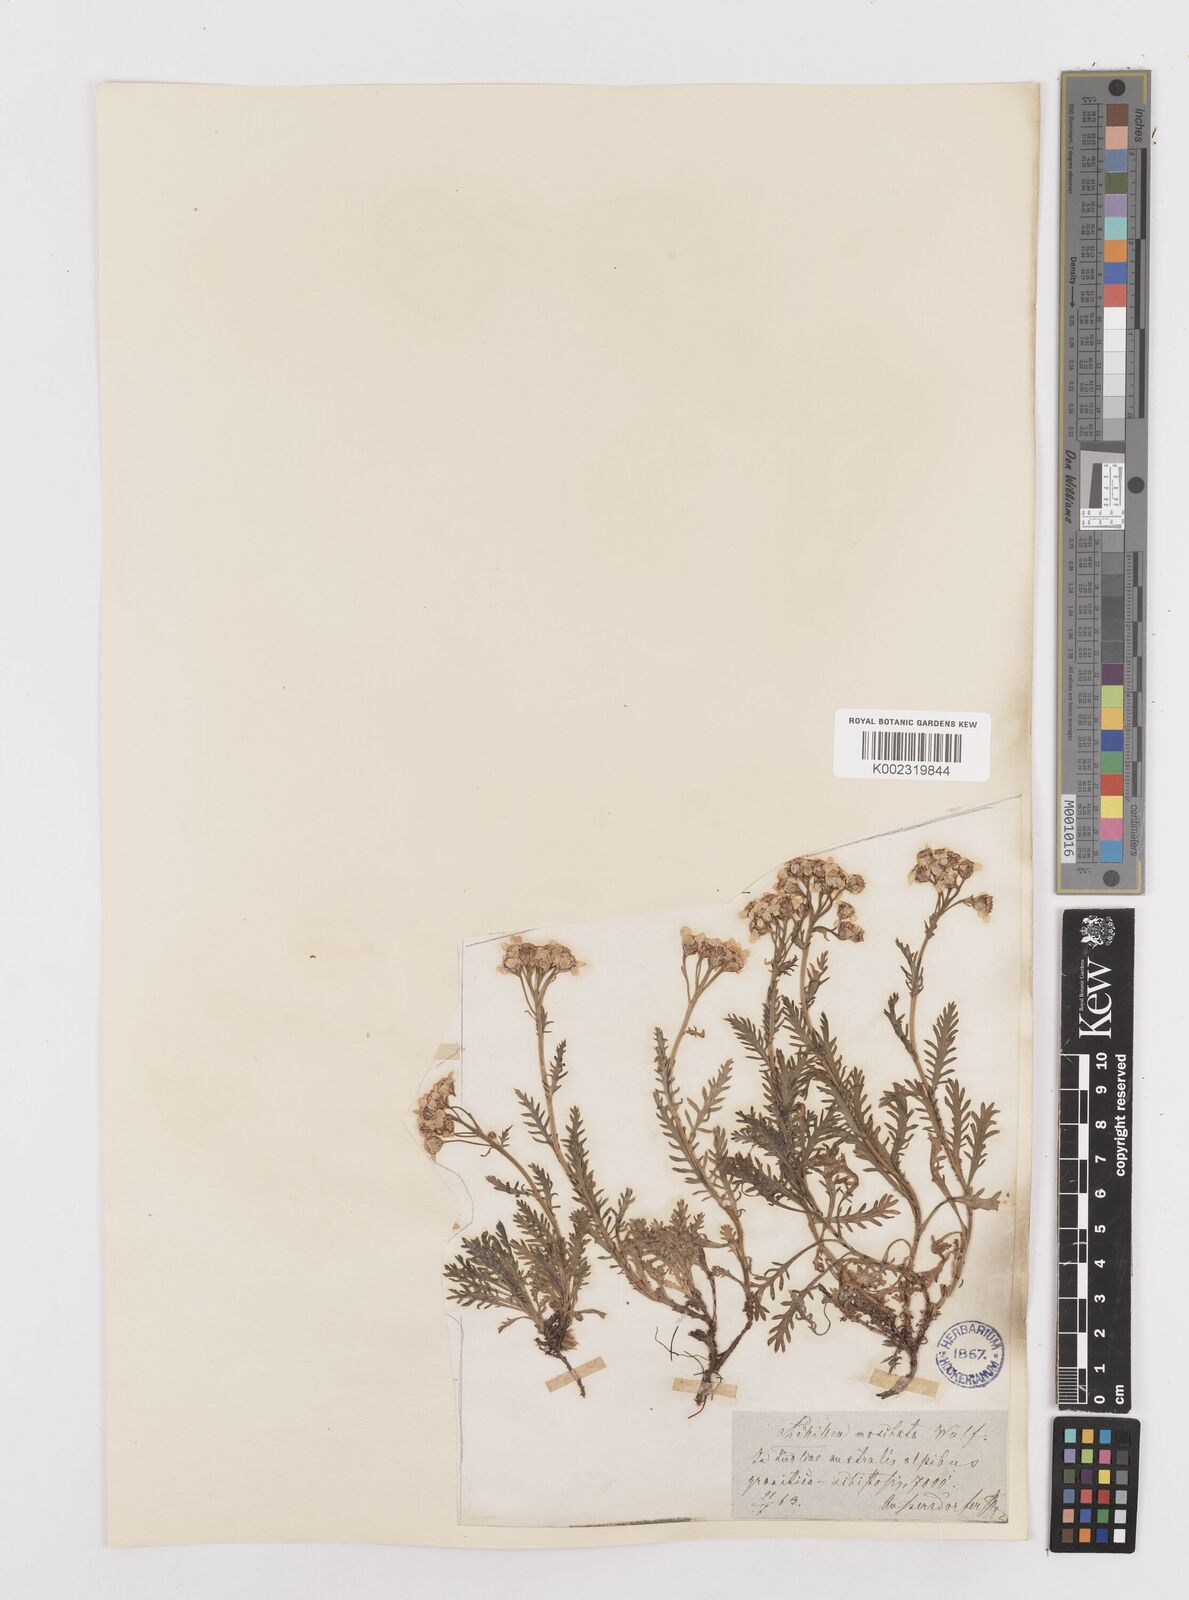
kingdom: Plantae
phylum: Tracheophyta
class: Magnoliopsida
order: Asterales
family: Asteraceae
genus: Achillea
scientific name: Achillea erba-rotta
